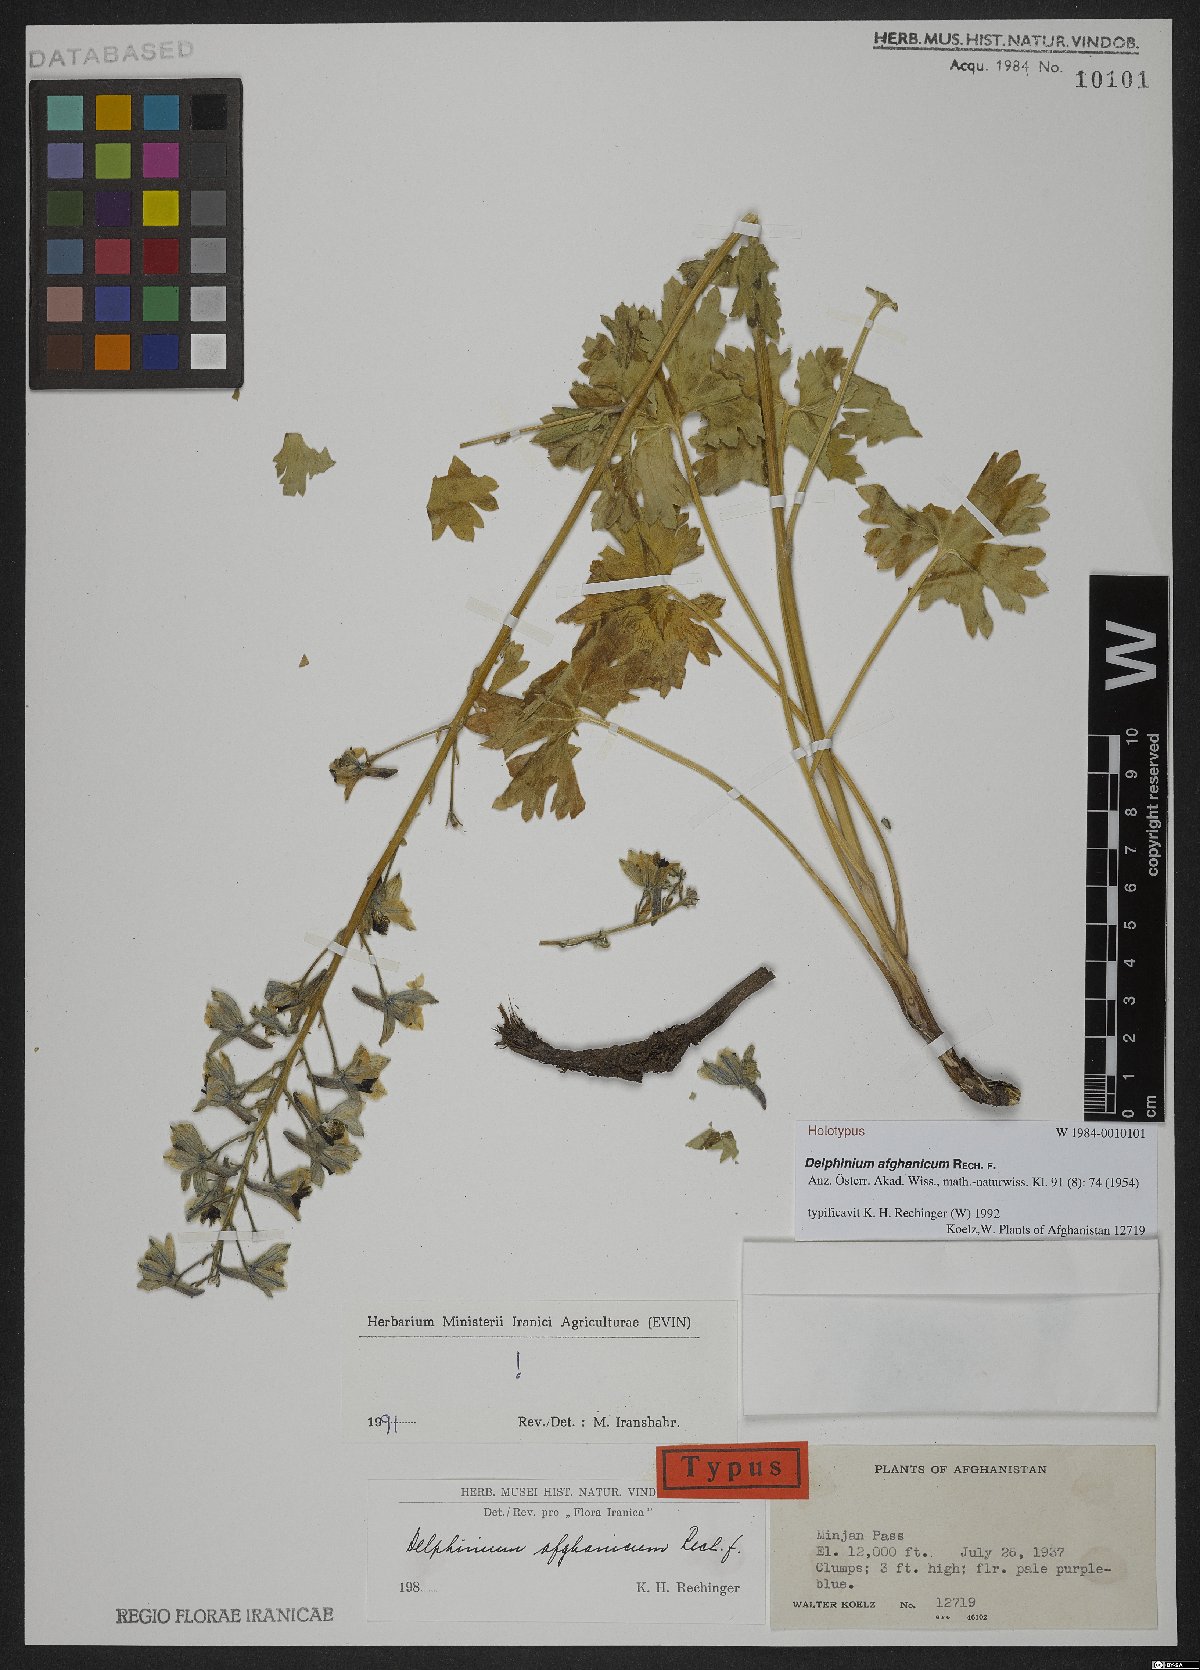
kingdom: Plantae
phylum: Tracheophyta
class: Magnoliopsida
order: Ranunculales
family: Ranunculaceae
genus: Delphinium
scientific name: Delphinium afghanicum
